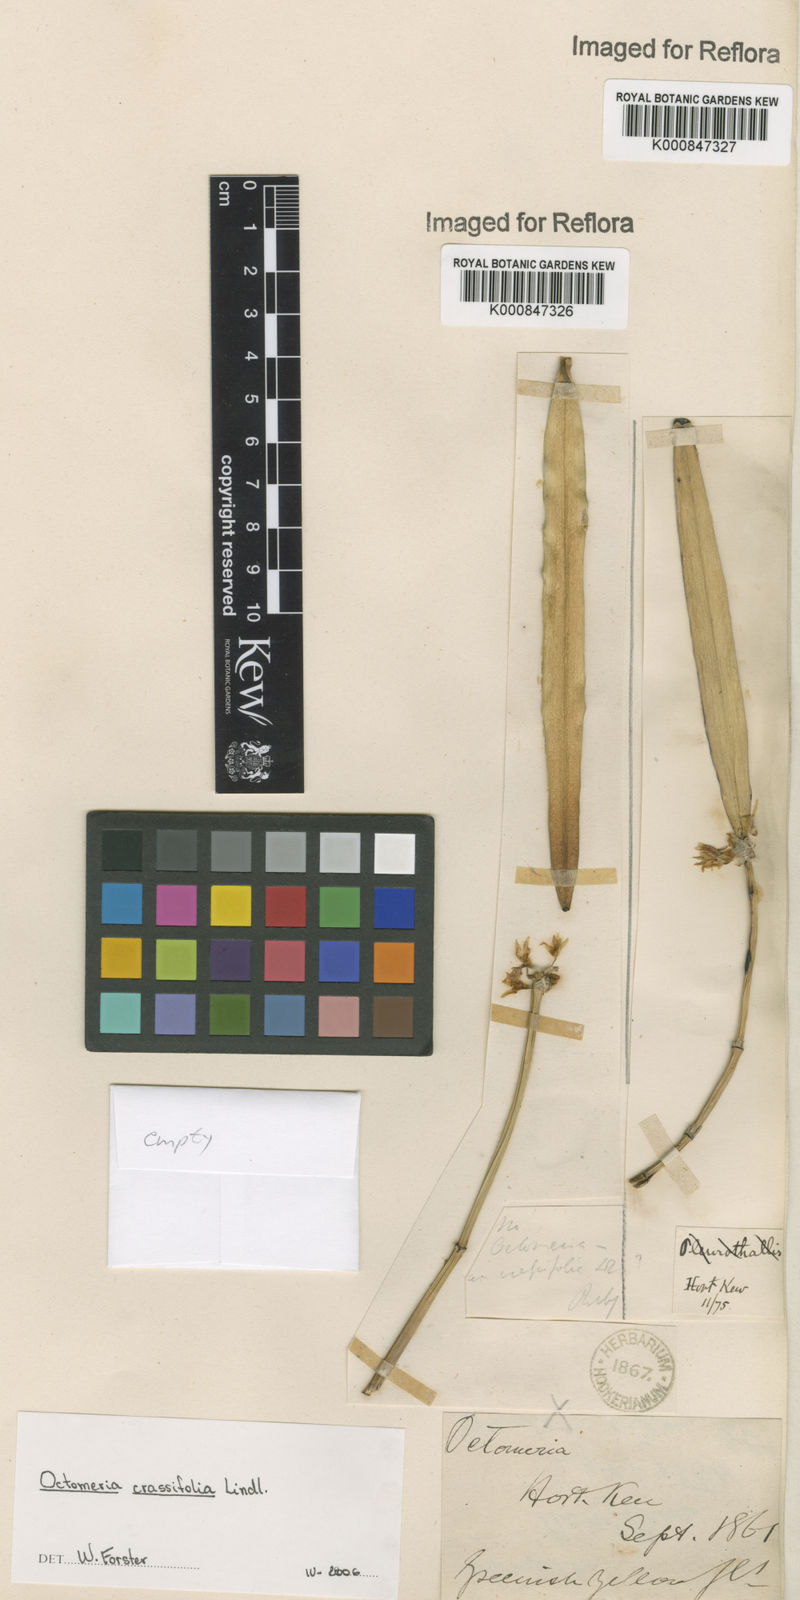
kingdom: Plantae
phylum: Tracheophyta
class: Liliopsida
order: Asparagales
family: Orchidaceae
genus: Octomeria
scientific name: Octomeria crassifolia
